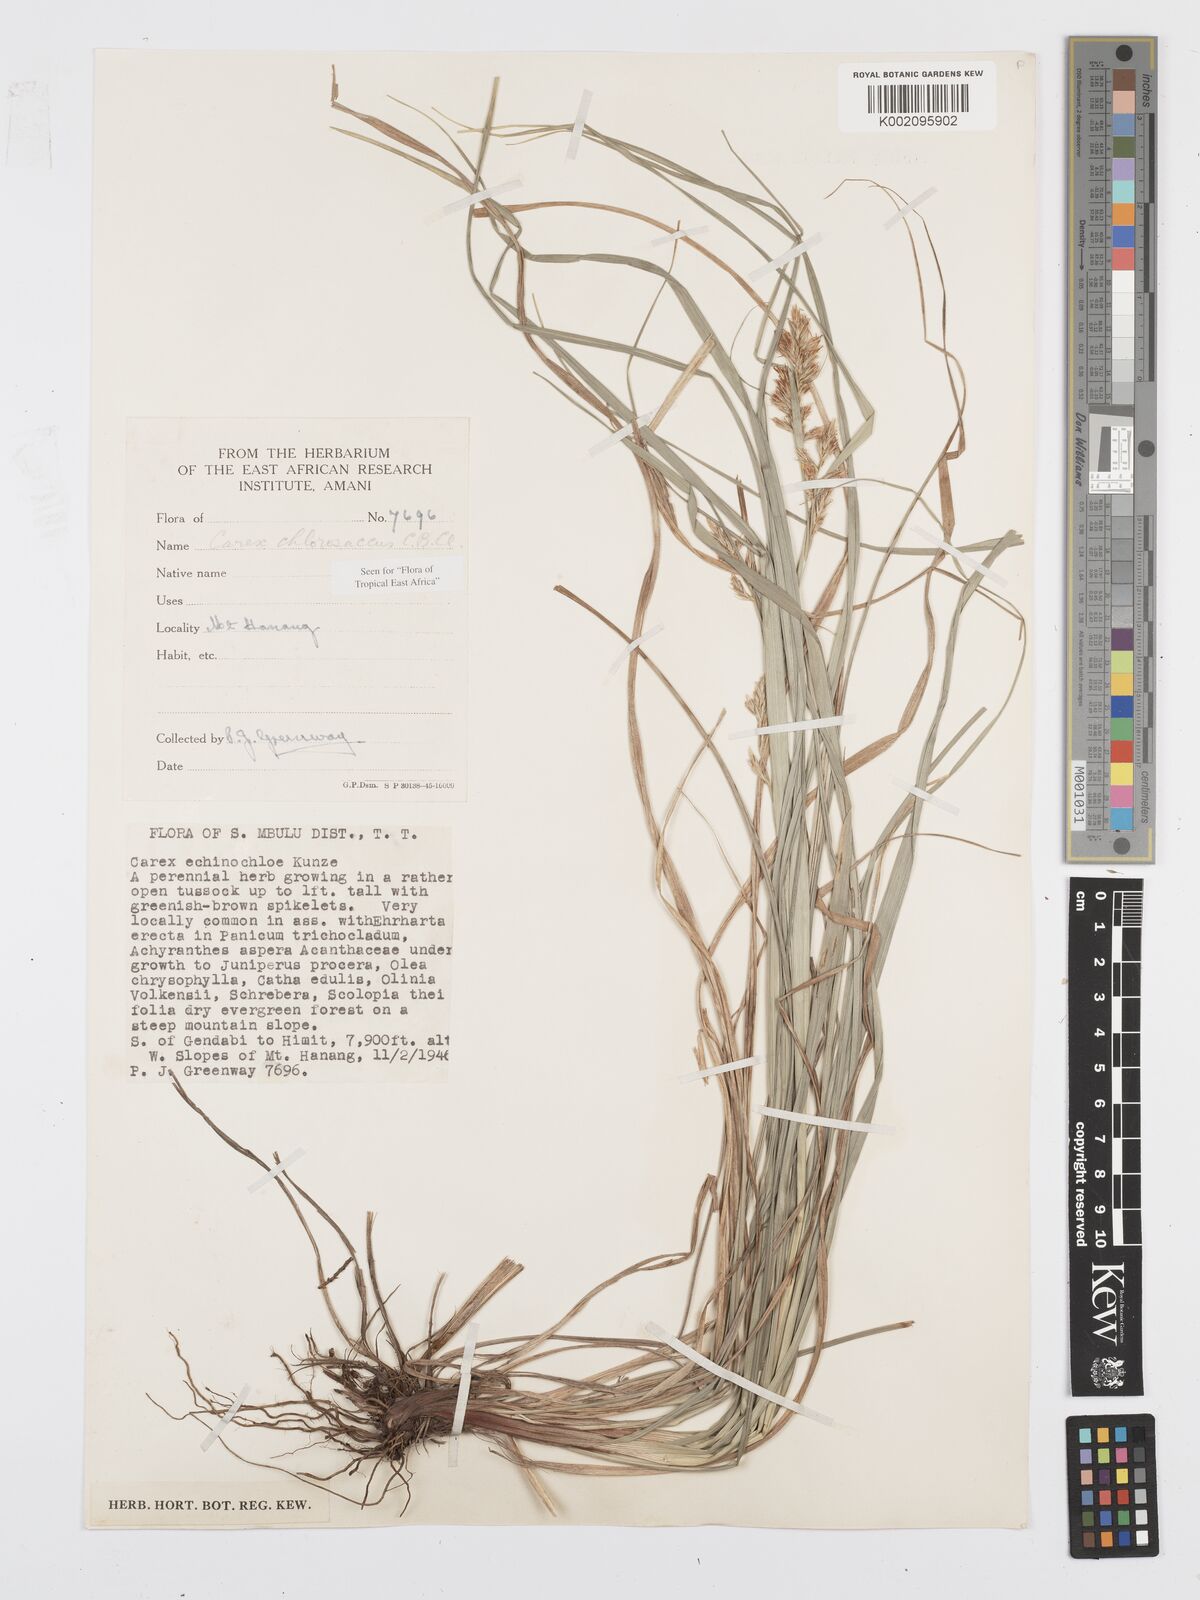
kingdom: Plantae
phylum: Tracheophyta
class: Liliopsida
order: Poales
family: Cyperaceae
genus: Carex
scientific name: Carex chlorosaccus
